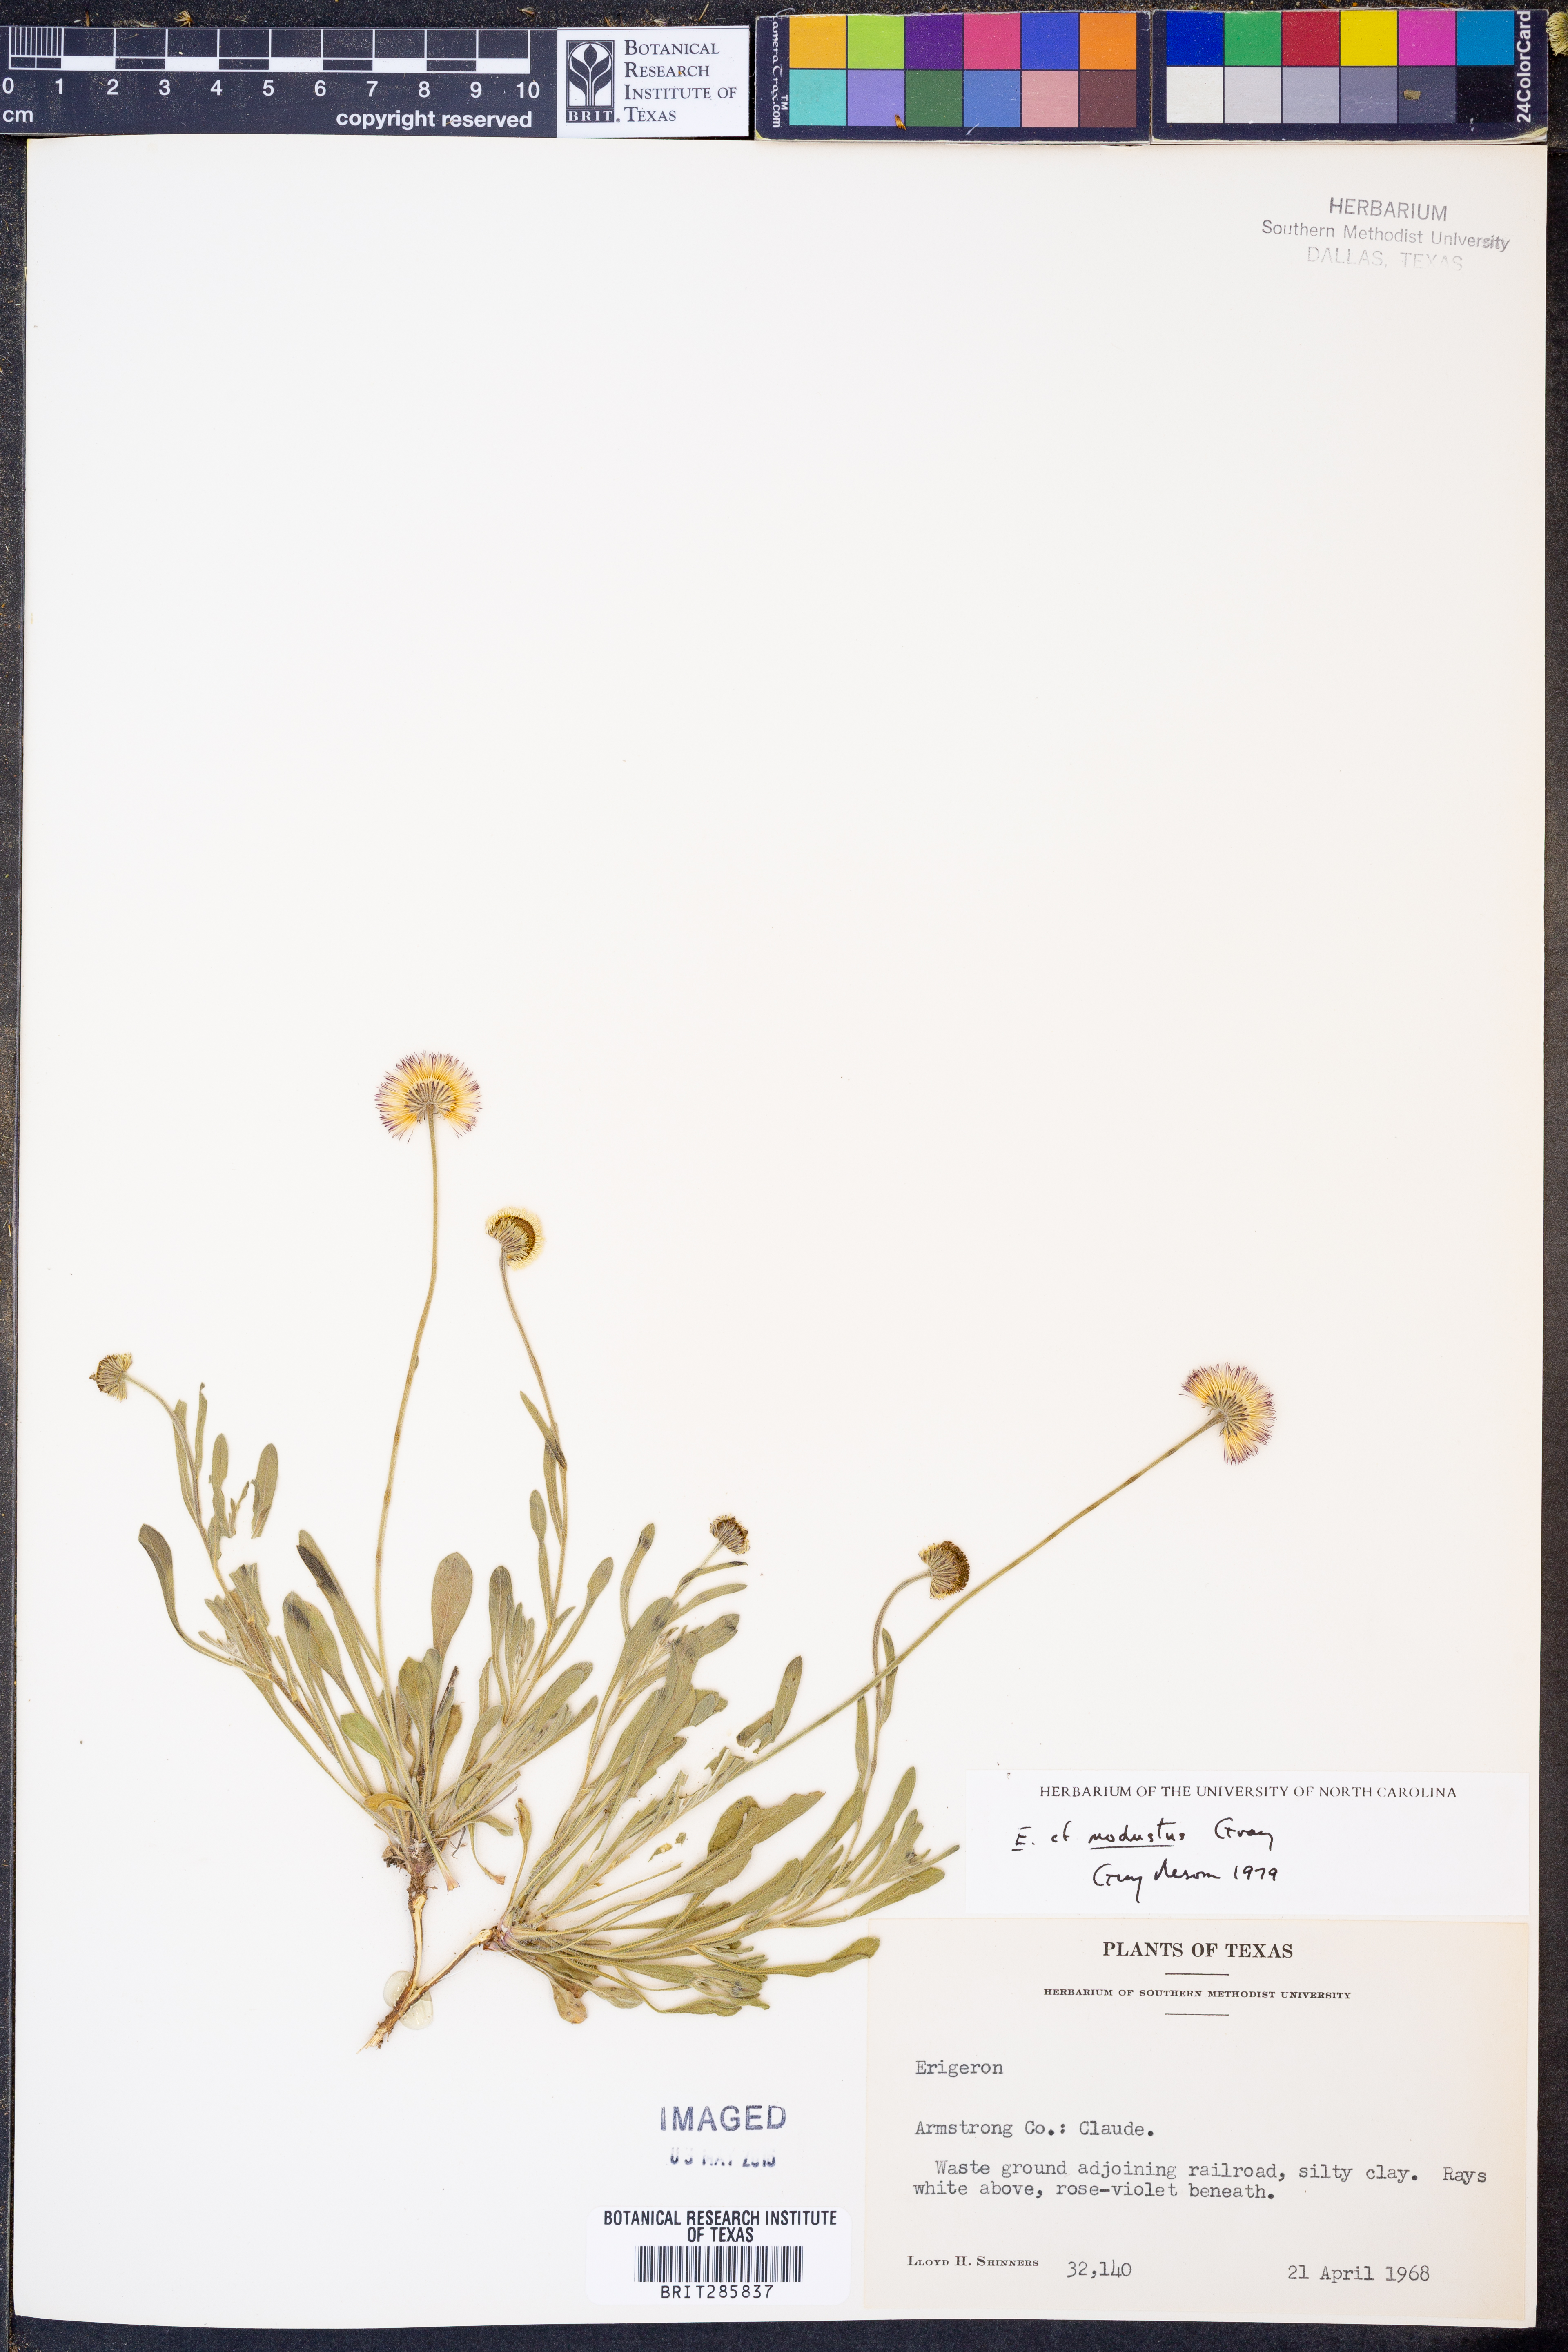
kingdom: Plantae
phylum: Tracheophyta
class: Magnoliopsida
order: Asterales
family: Asteraceae
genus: Erigeron
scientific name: Erigeron modestus
